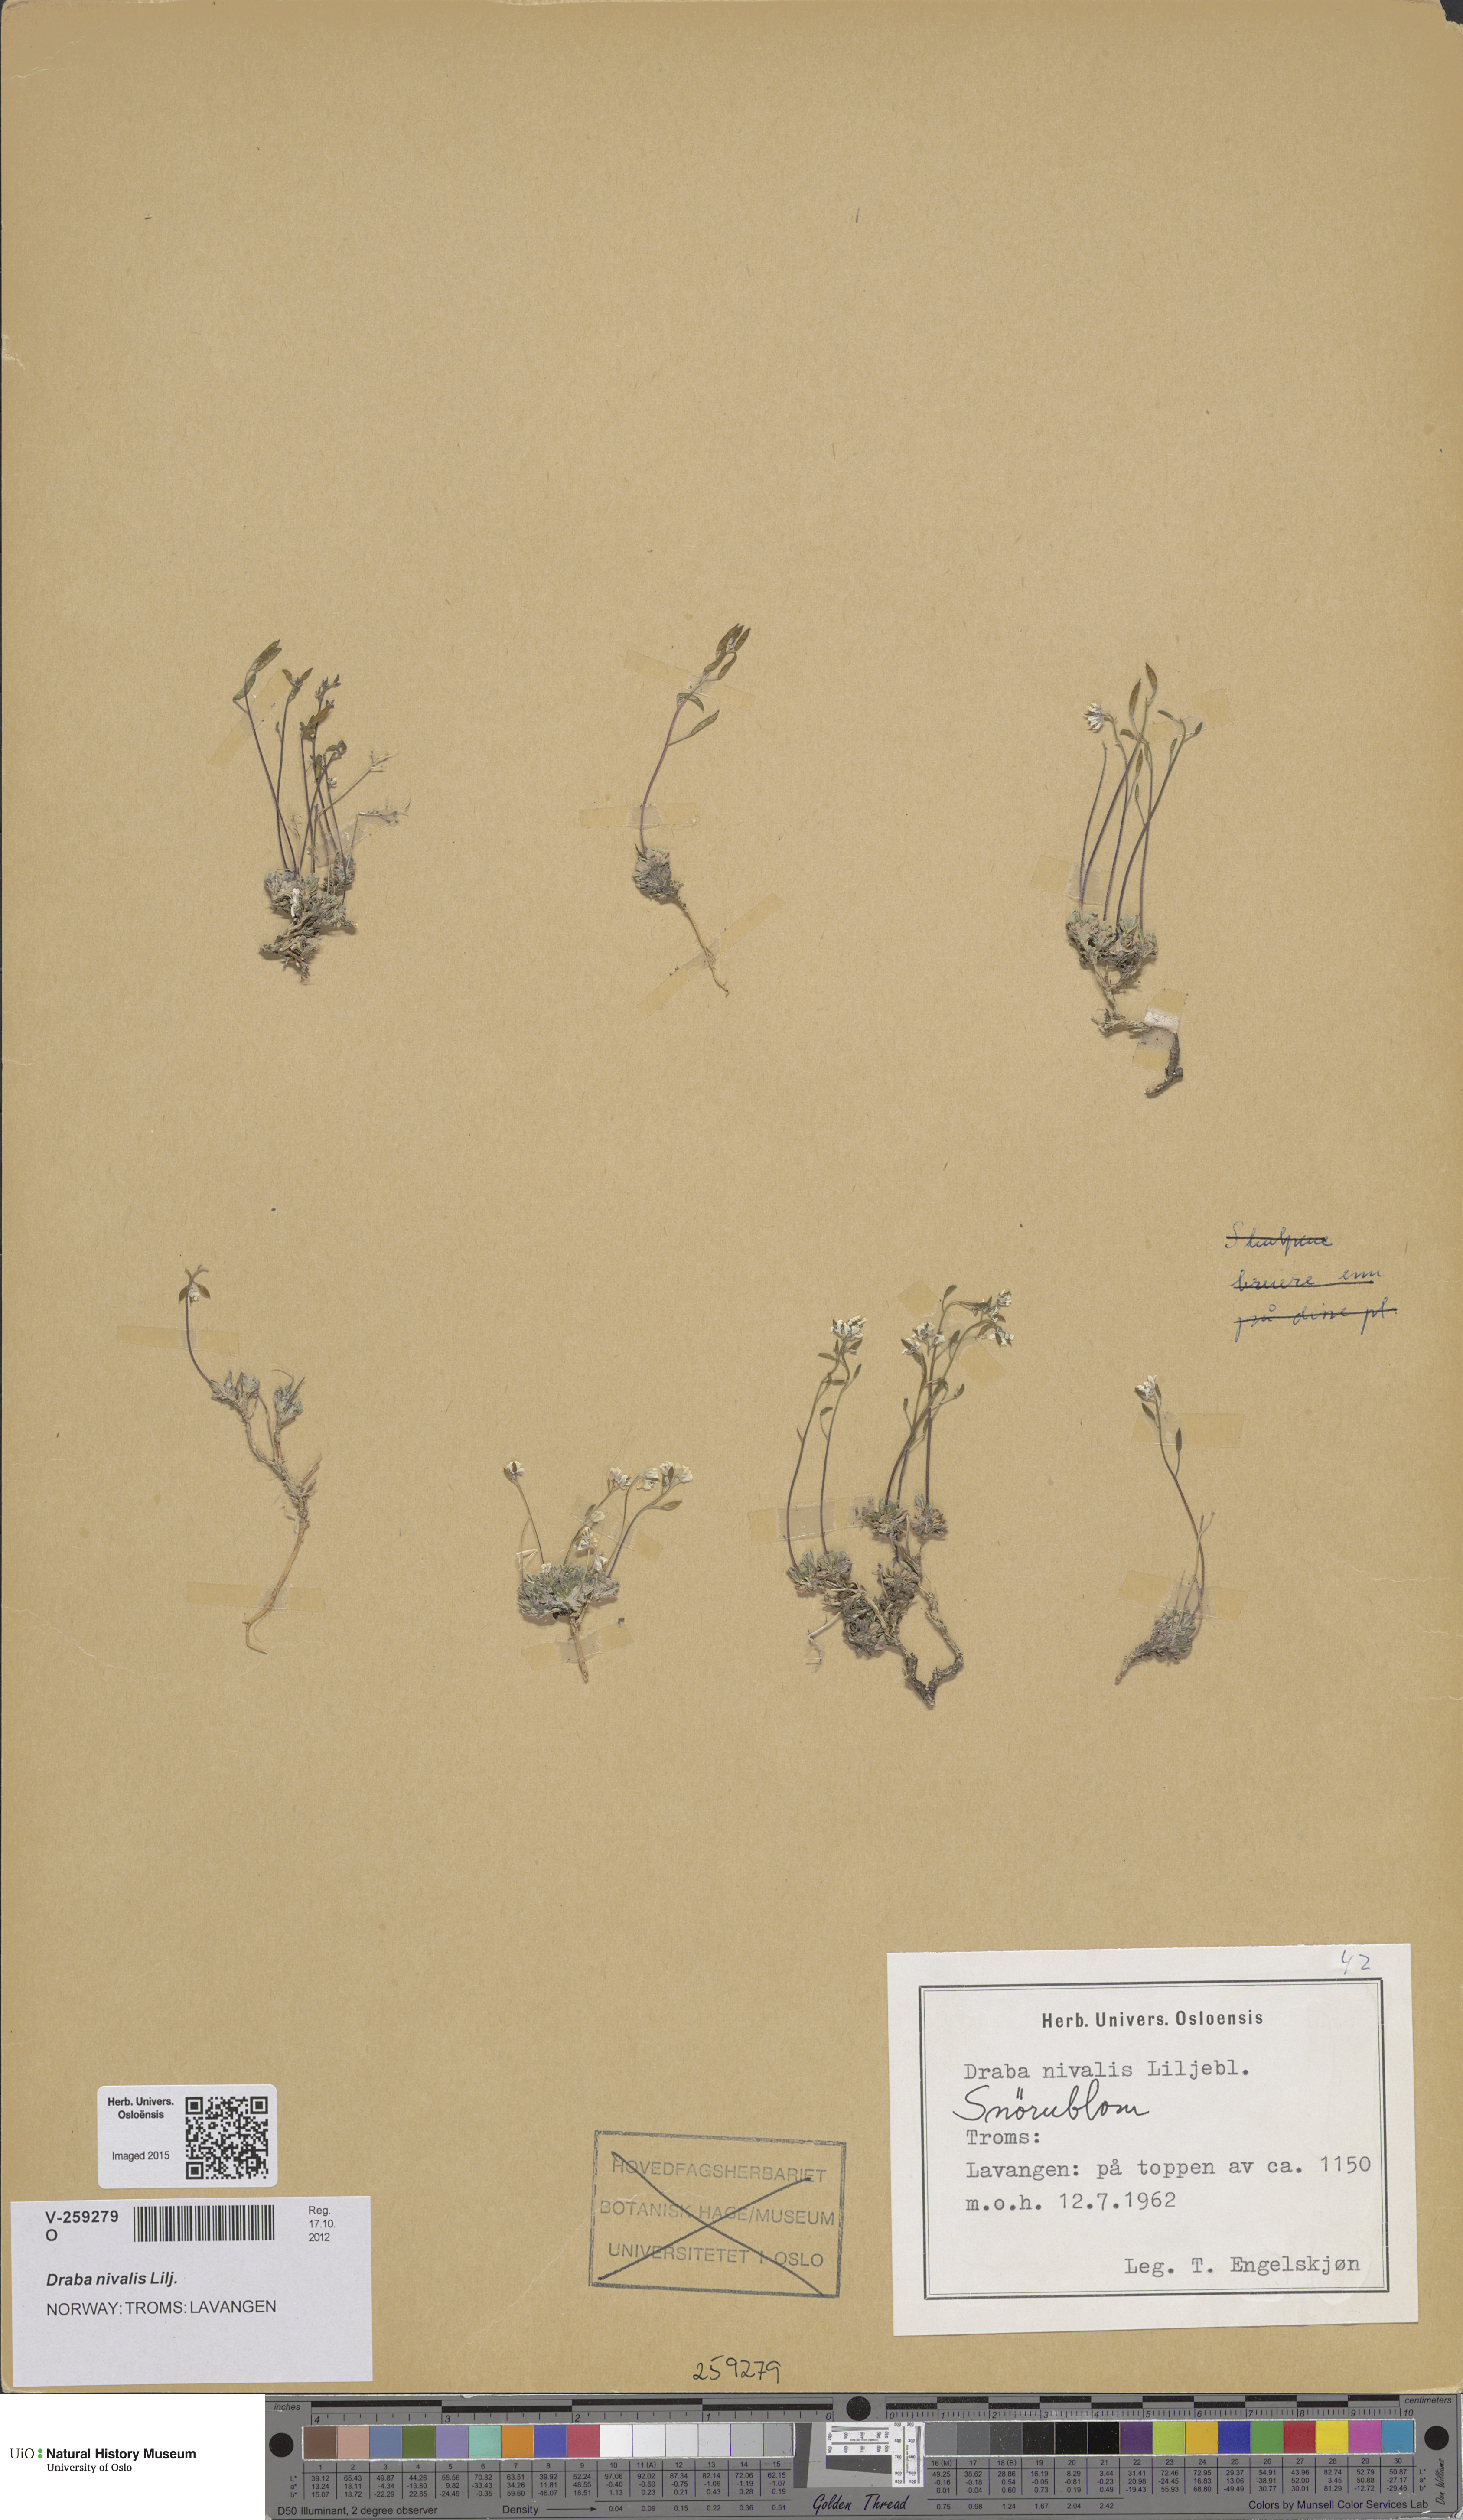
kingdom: Plantae
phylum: Tracheophyta
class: Magnoliopsida
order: Brassicales
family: Brassicaceae
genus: Draba
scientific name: Draba nivalis
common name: Snow draba
